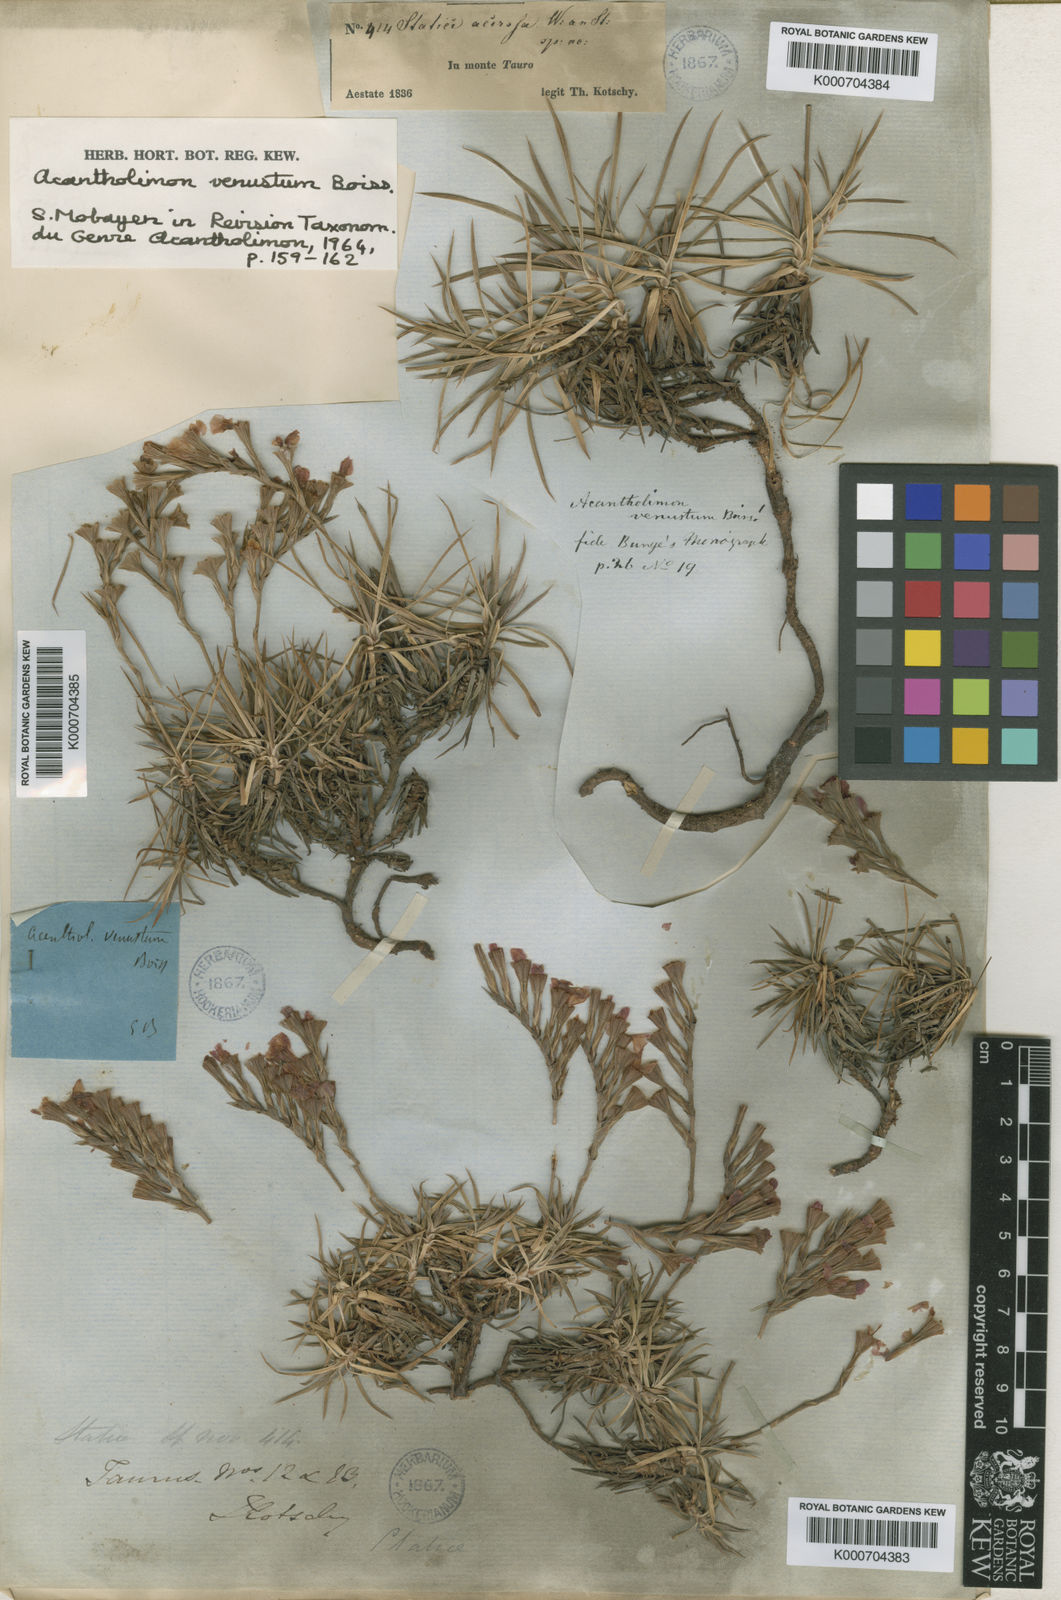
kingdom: Plantae
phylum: Tracheophyta
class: Magnoliopsida
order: Caryophyllales
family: Plumbaginaceae
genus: Acantholimon
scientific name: Acantholimon venustum
